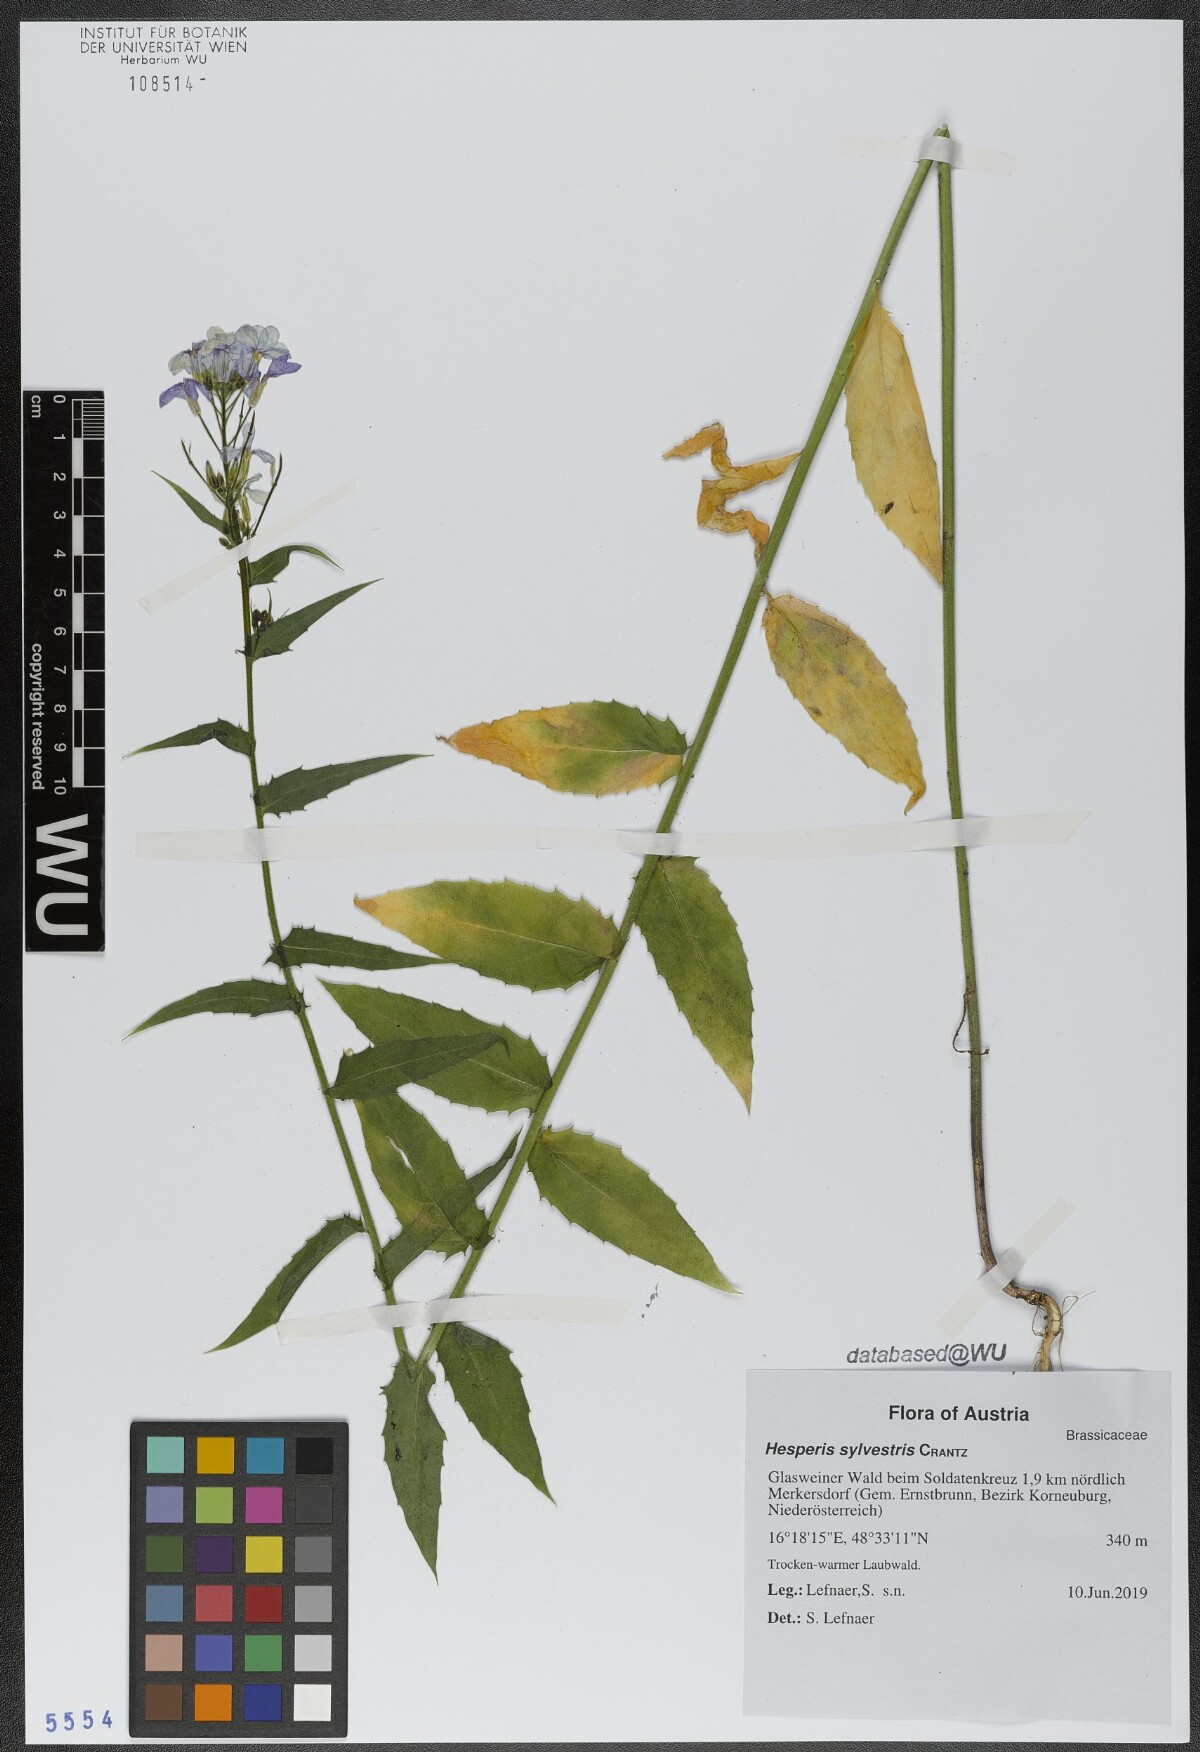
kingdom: Plantae
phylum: Tracheophyta
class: Magnoliopsida
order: Brassicales
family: Brassicaceae
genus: Hesperis
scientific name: Hesperis sylvestris
